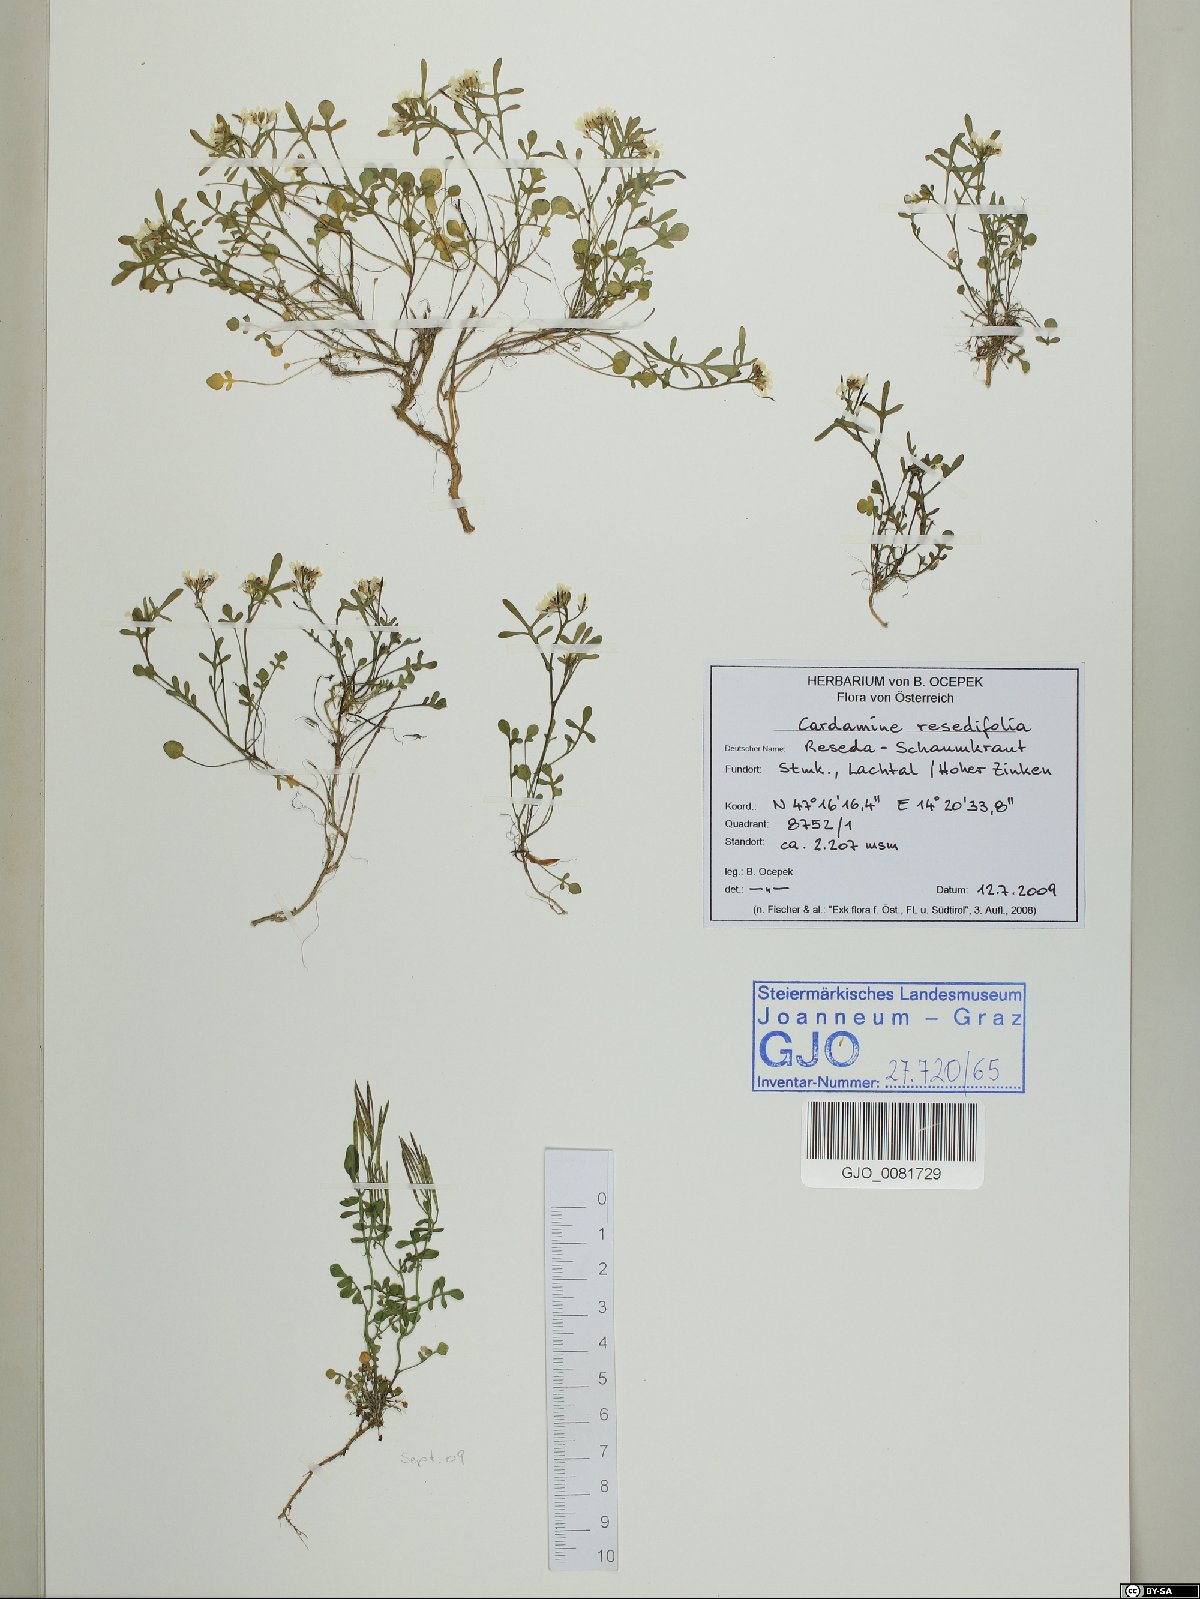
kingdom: Plantae
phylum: Tracheophyta
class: Magnoliopsida
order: Brassicales
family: Brassicaceae
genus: Cardamine
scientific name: Cardamine resedifolia
